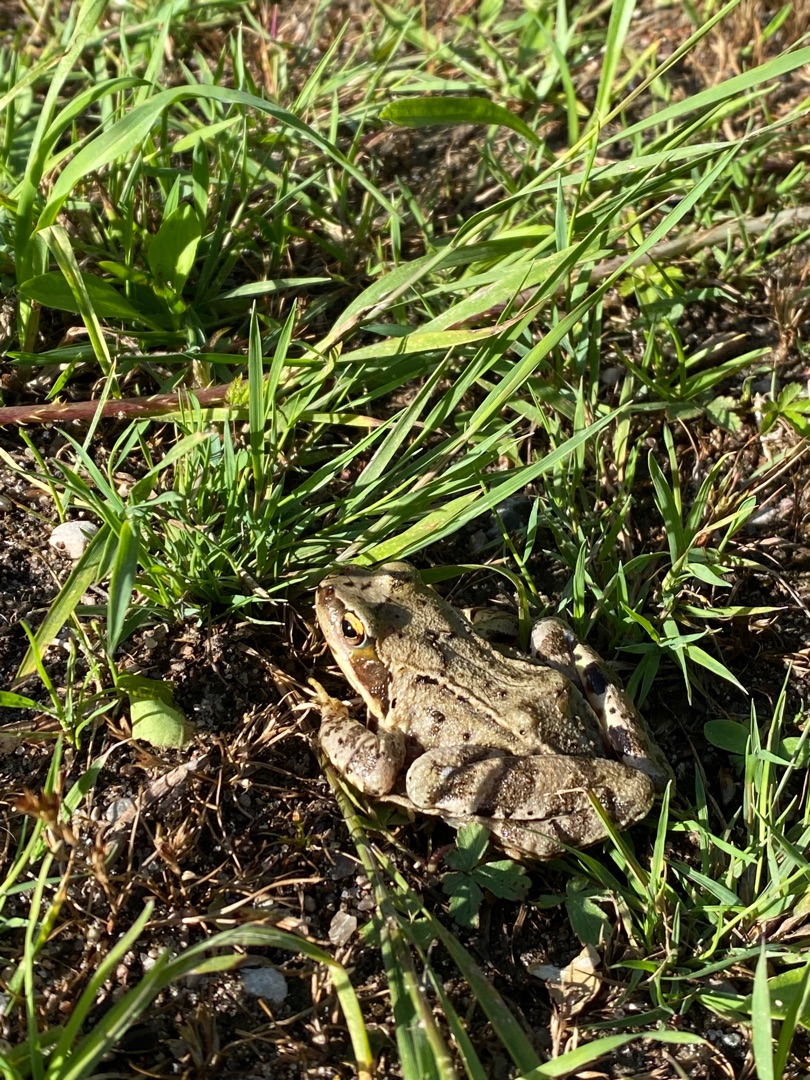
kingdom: Animalia
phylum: Chordata
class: Amphibia
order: Anura
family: Ranidae
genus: Rana
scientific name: Rana temporaria
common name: Butsnudet frø
